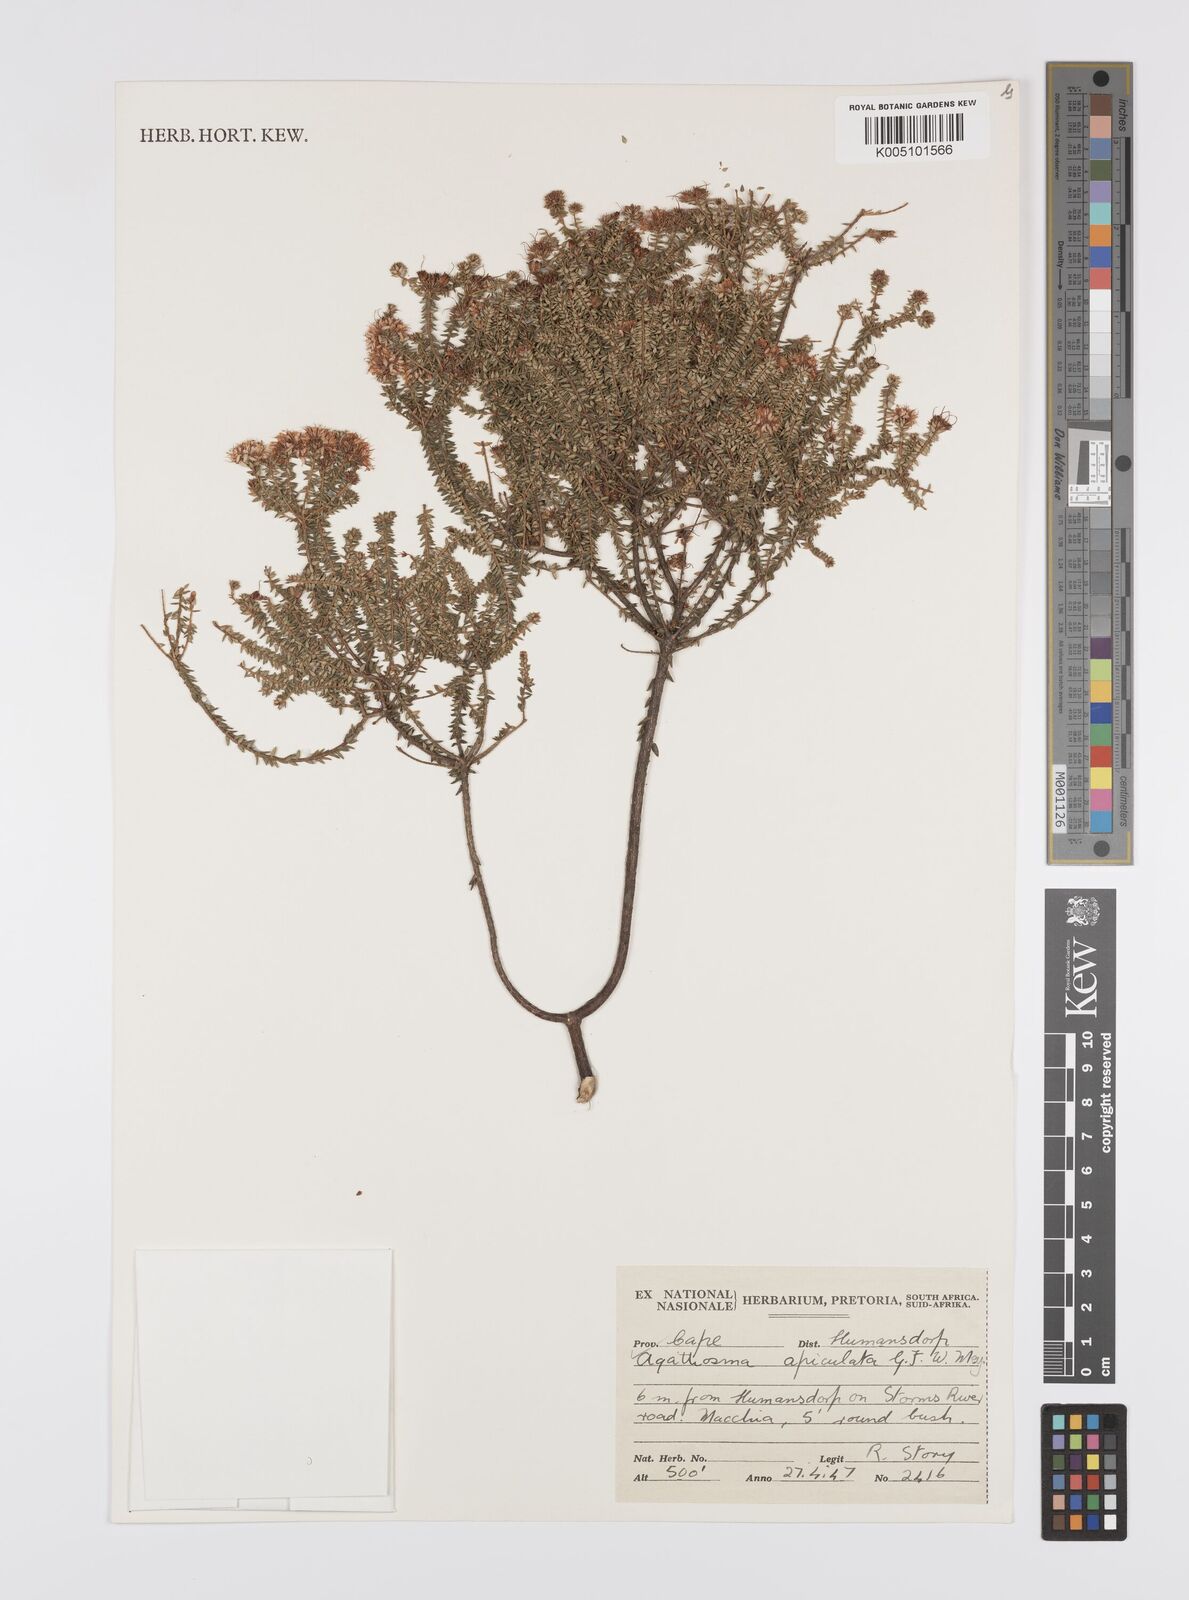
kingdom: Plantae
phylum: Tracheophyta
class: Magnoliopsida
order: Sapindales
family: Rutaceae
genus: Agathosma
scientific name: Agathosma
